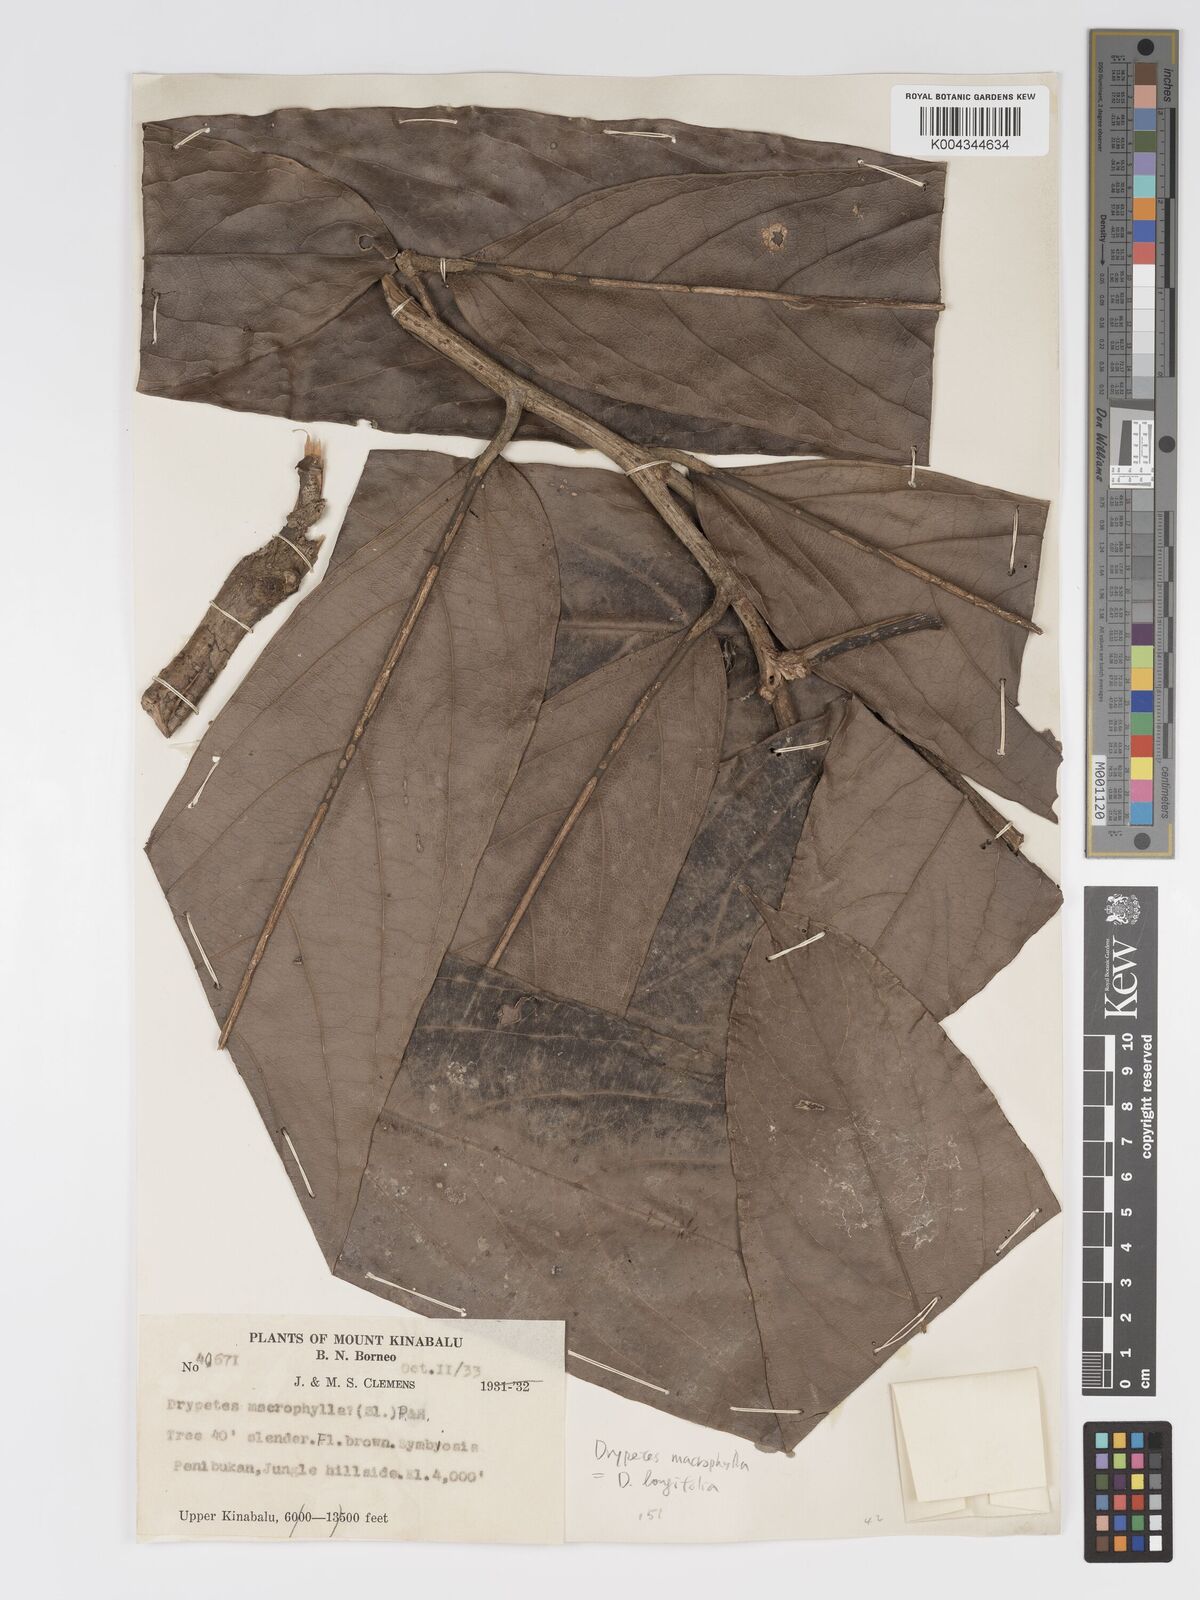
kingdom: Plantae
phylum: Tracheophyta
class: Magnoliopsida
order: Malpighiales
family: Putranjivaceae
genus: Drypetes
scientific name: Drypetes longifolia
